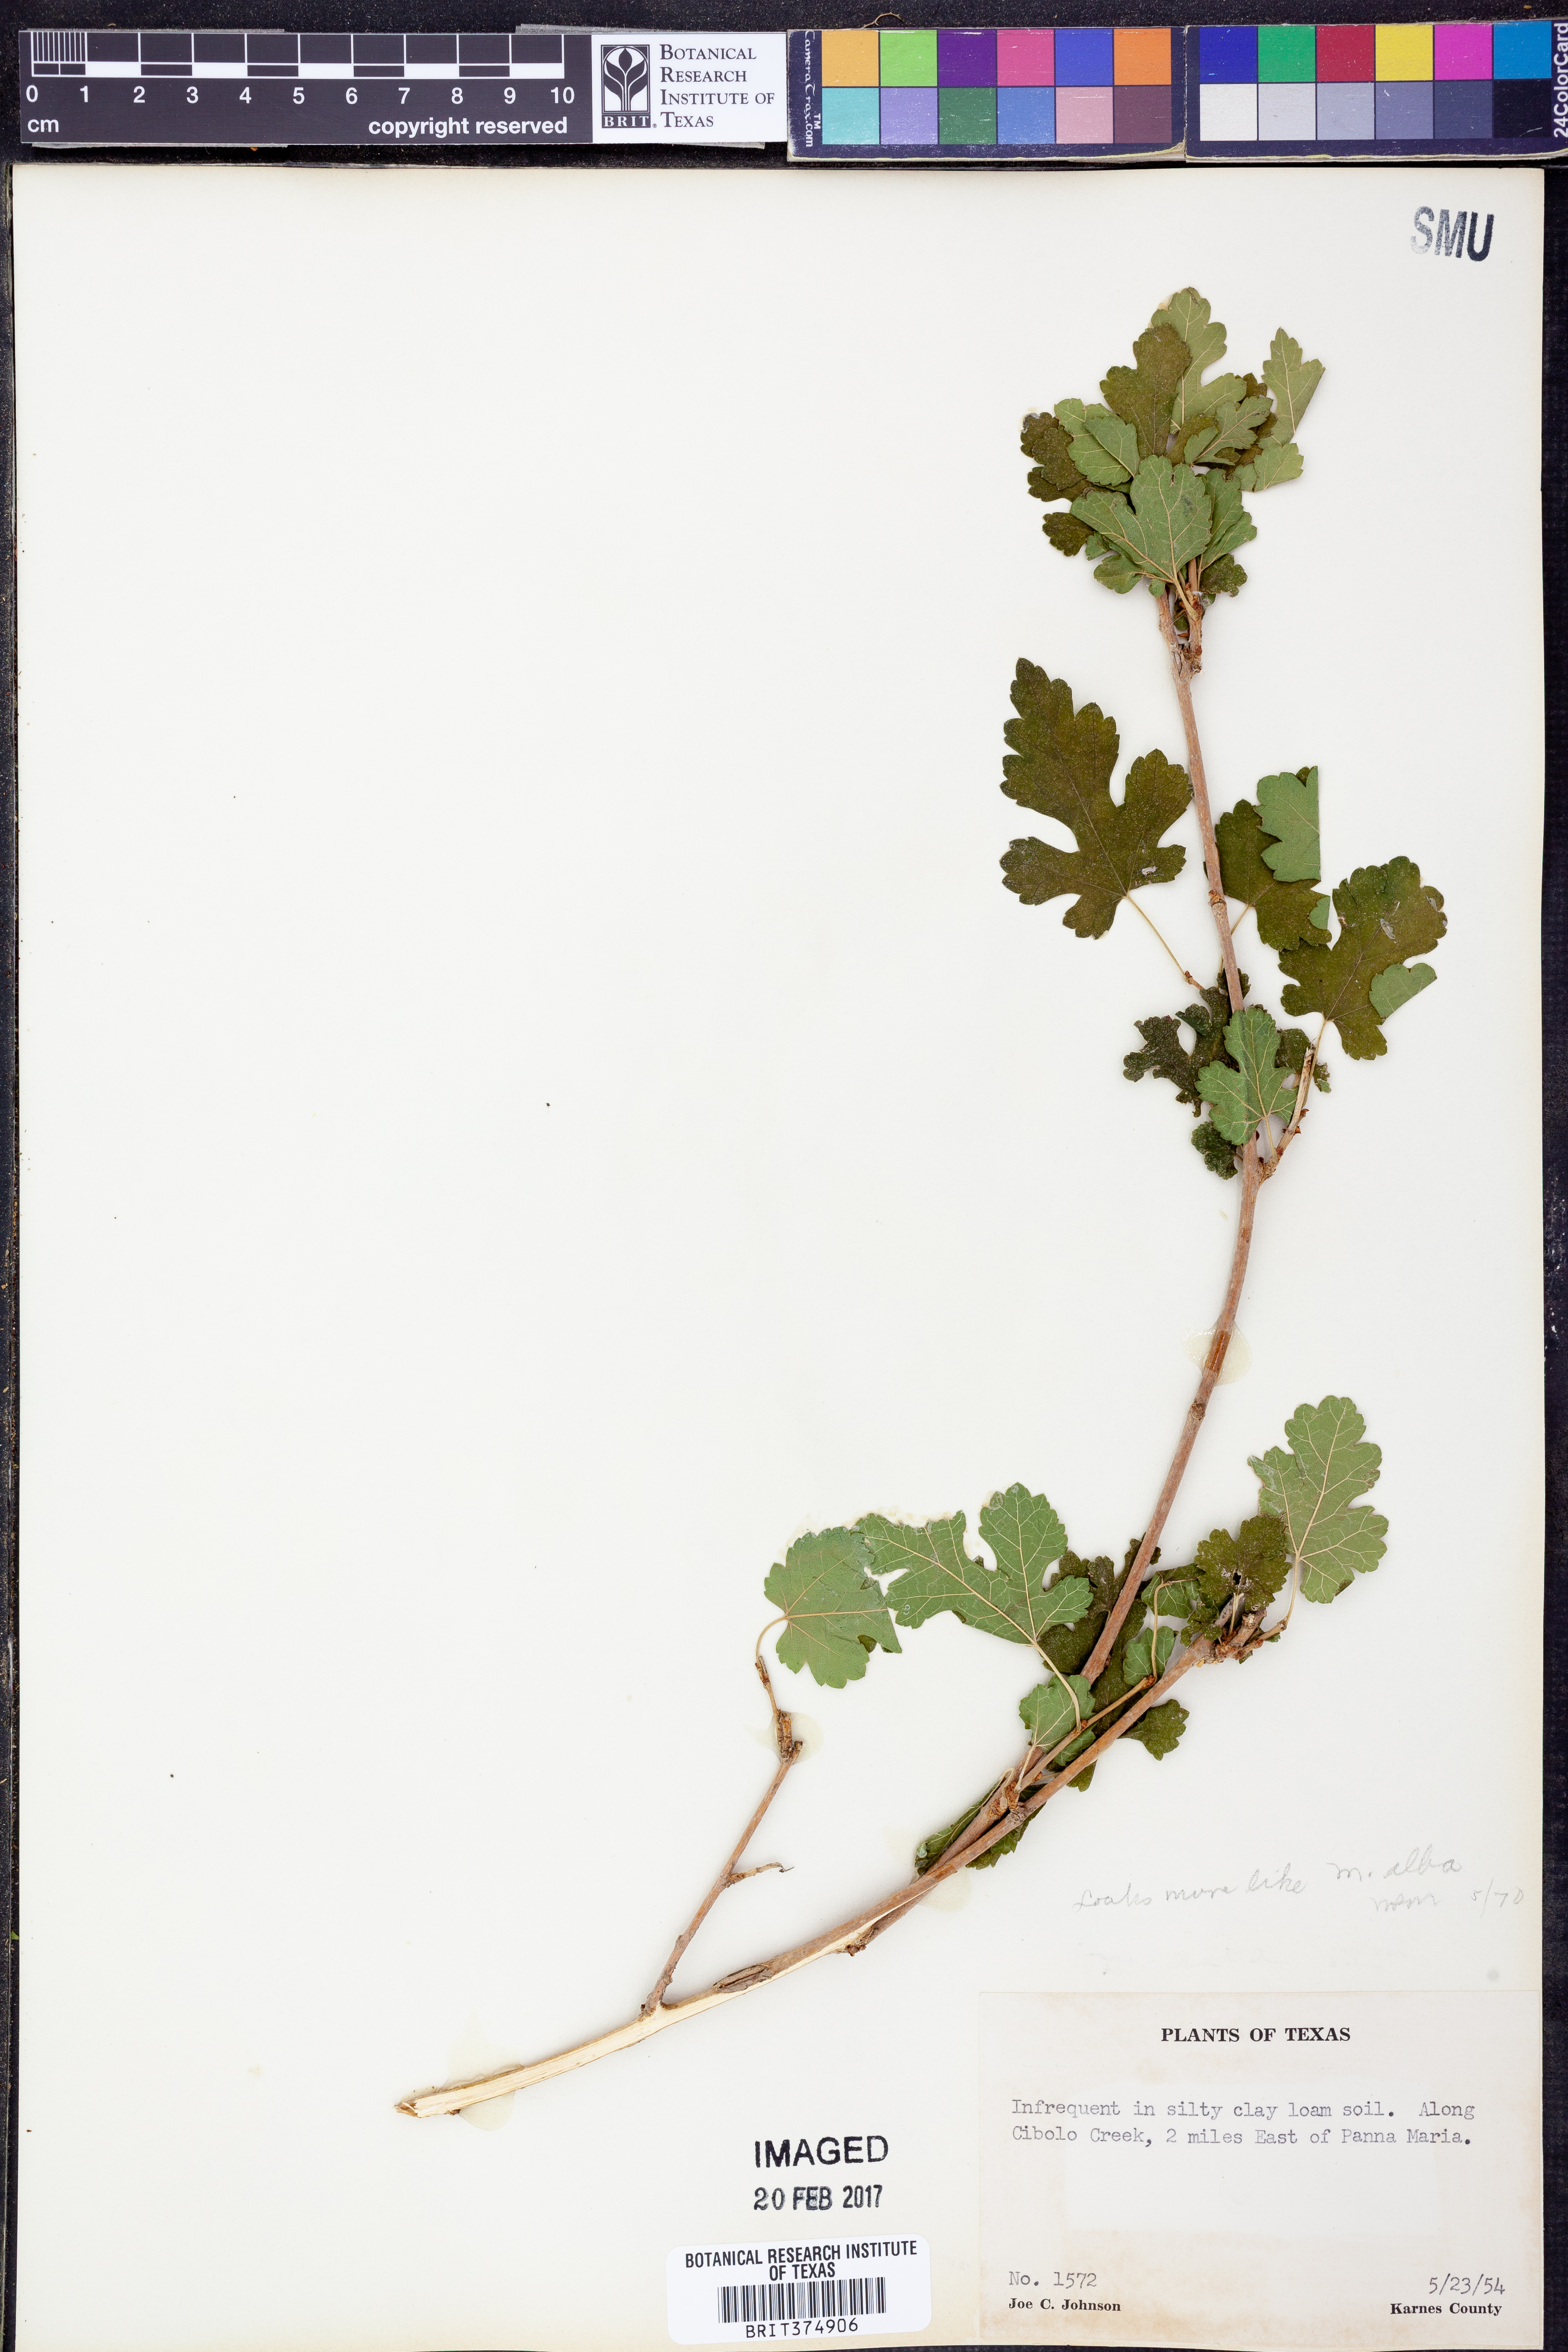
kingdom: Plantae
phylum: Tracheophyta
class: Magnoliopsida
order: Rosales
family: Moraceae
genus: Morus
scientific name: Morus alba
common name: White mulberry
